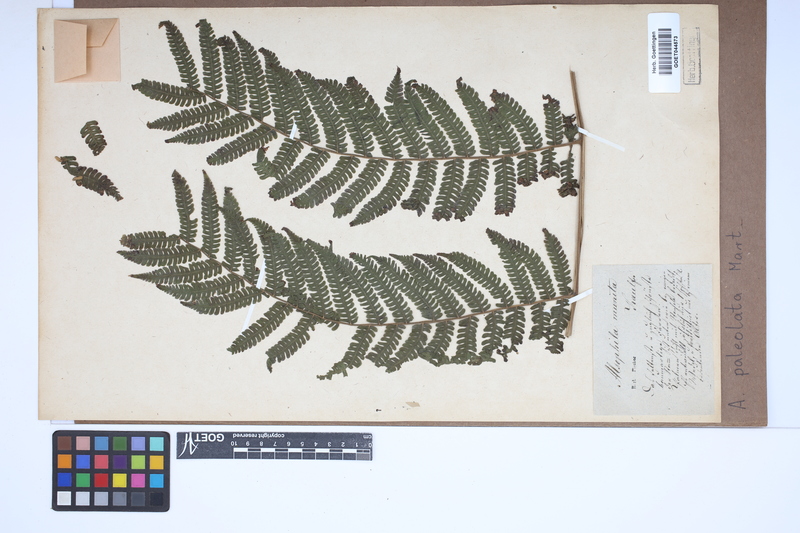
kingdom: Plantae
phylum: Tracheophyta
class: Polypodiopsida
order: Cyatheales
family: Cyatheaceae
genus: Cyathea
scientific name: Cyathea phalerata
